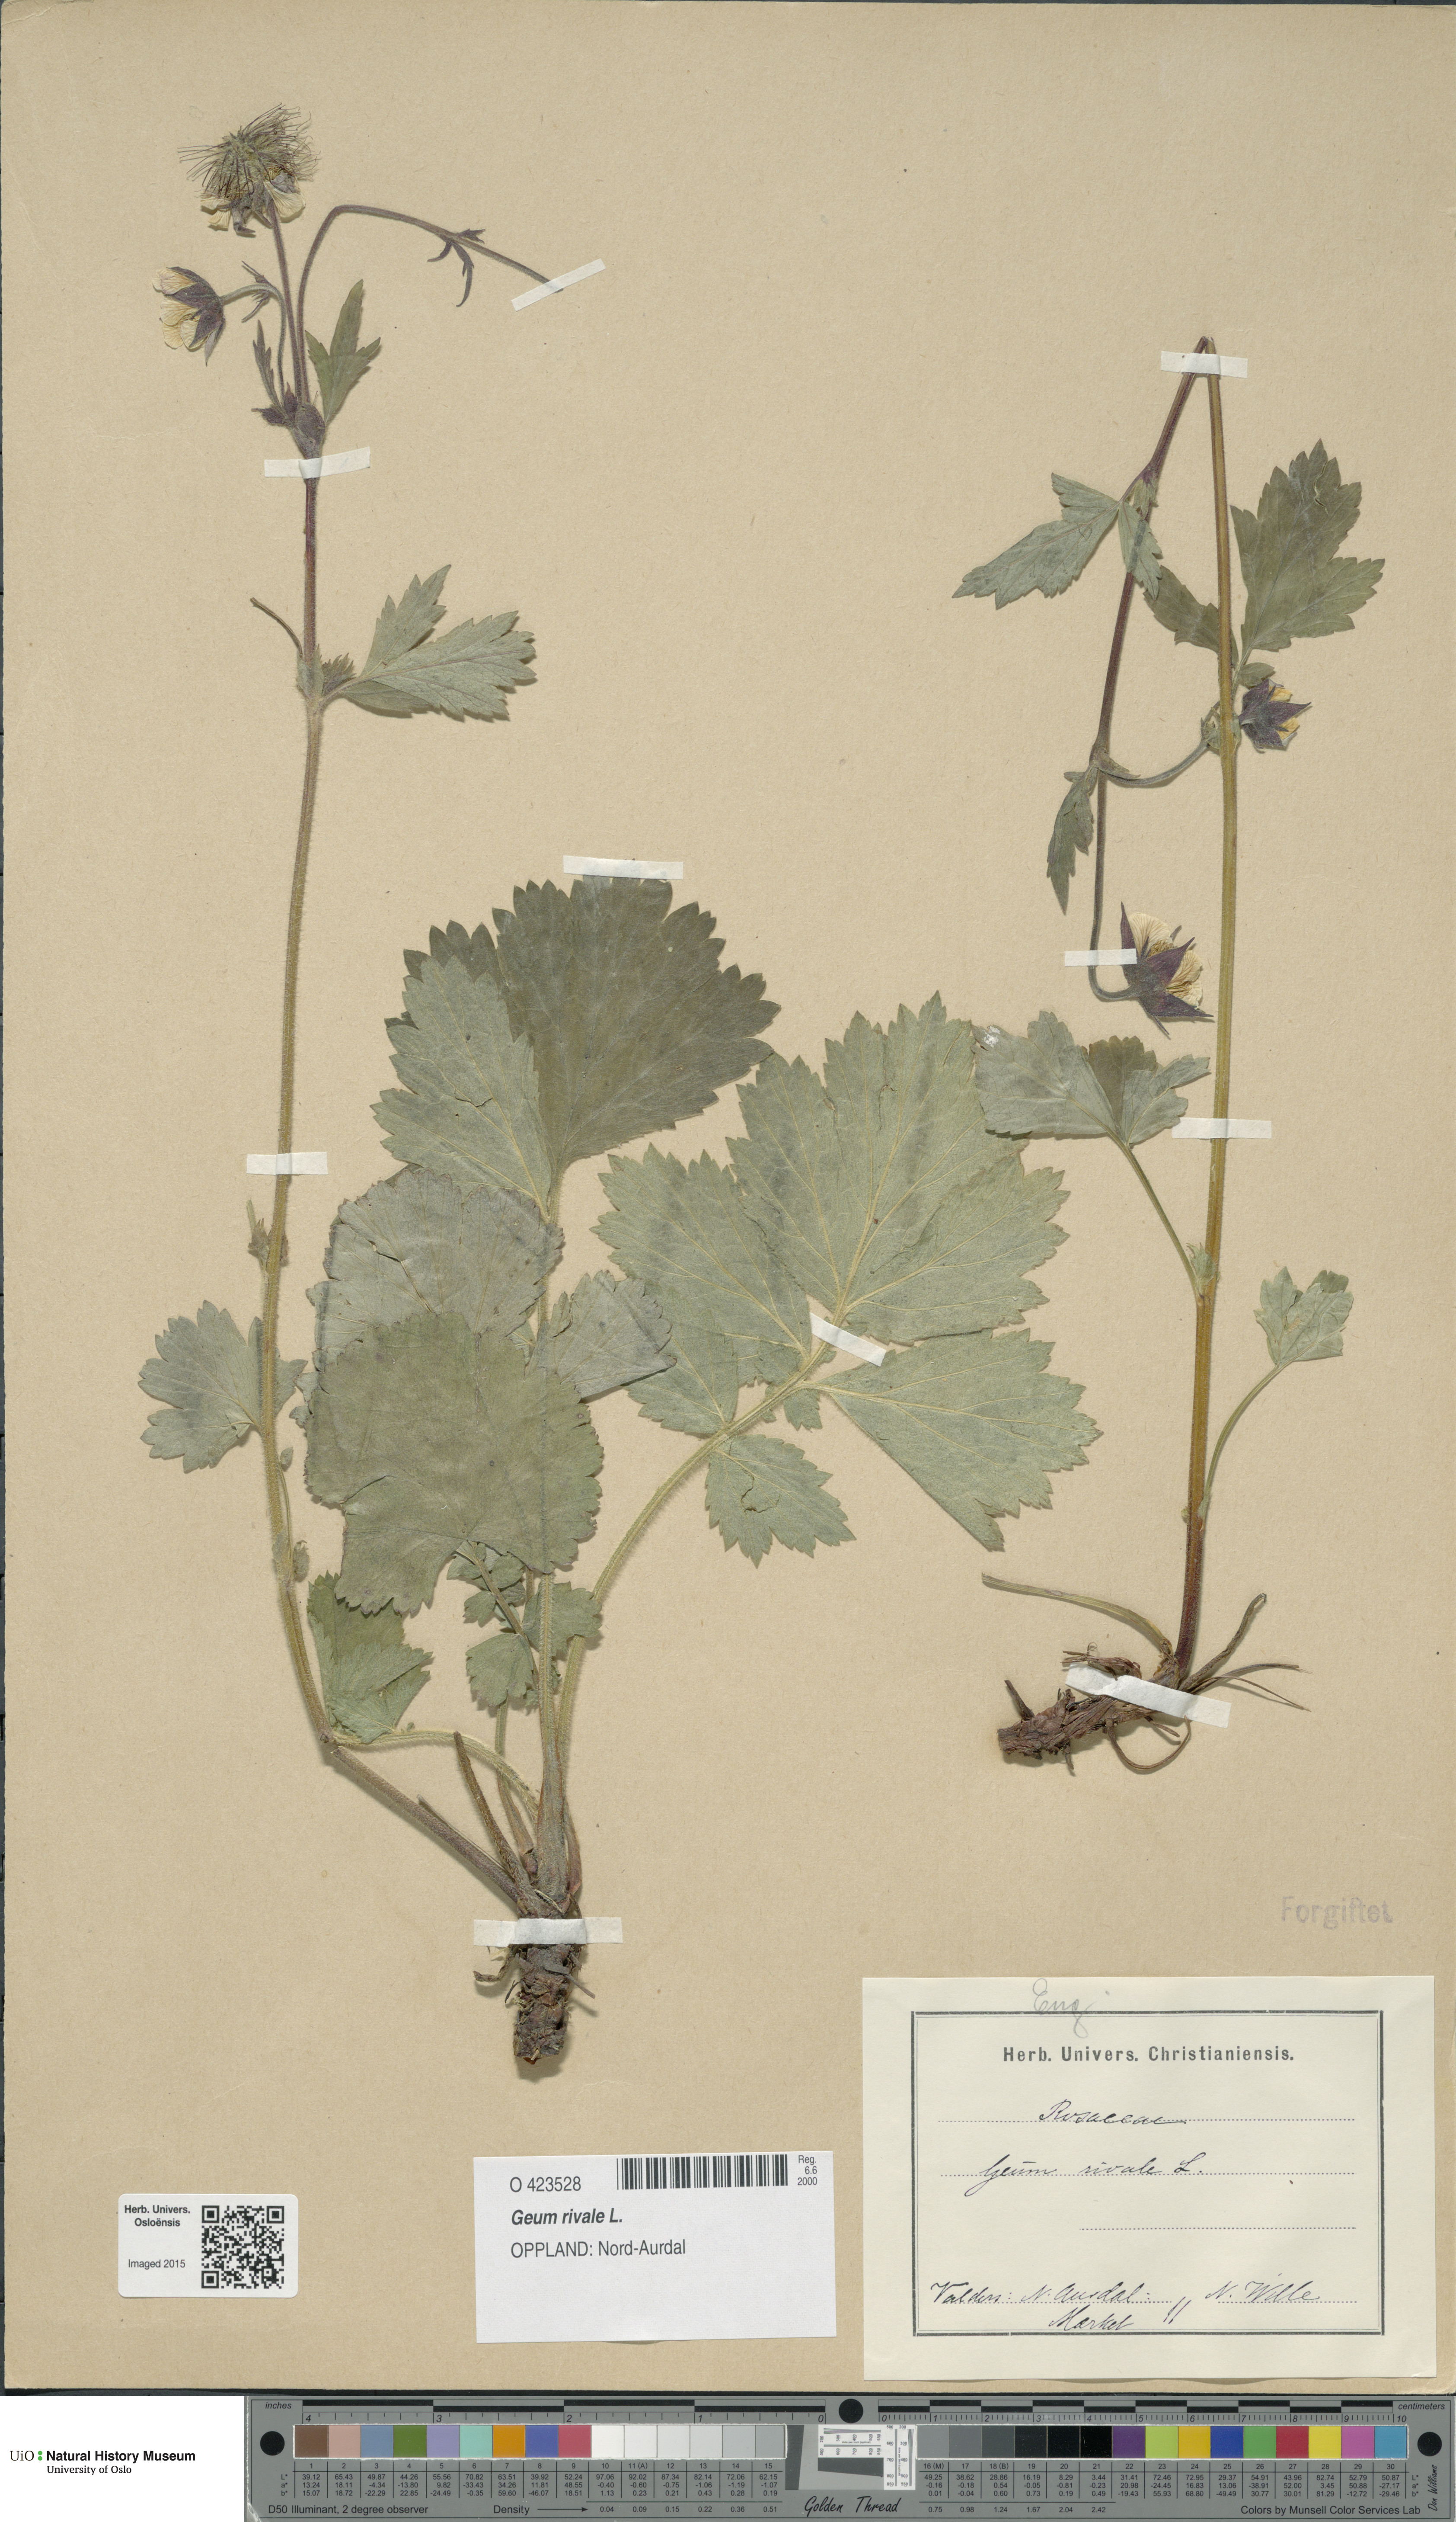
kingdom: Plantae
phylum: Tracheophyta
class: Magnoliopsida
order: Rosales
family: Rosaceae
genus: Geum
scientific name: Geum rivale
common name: Water avens
